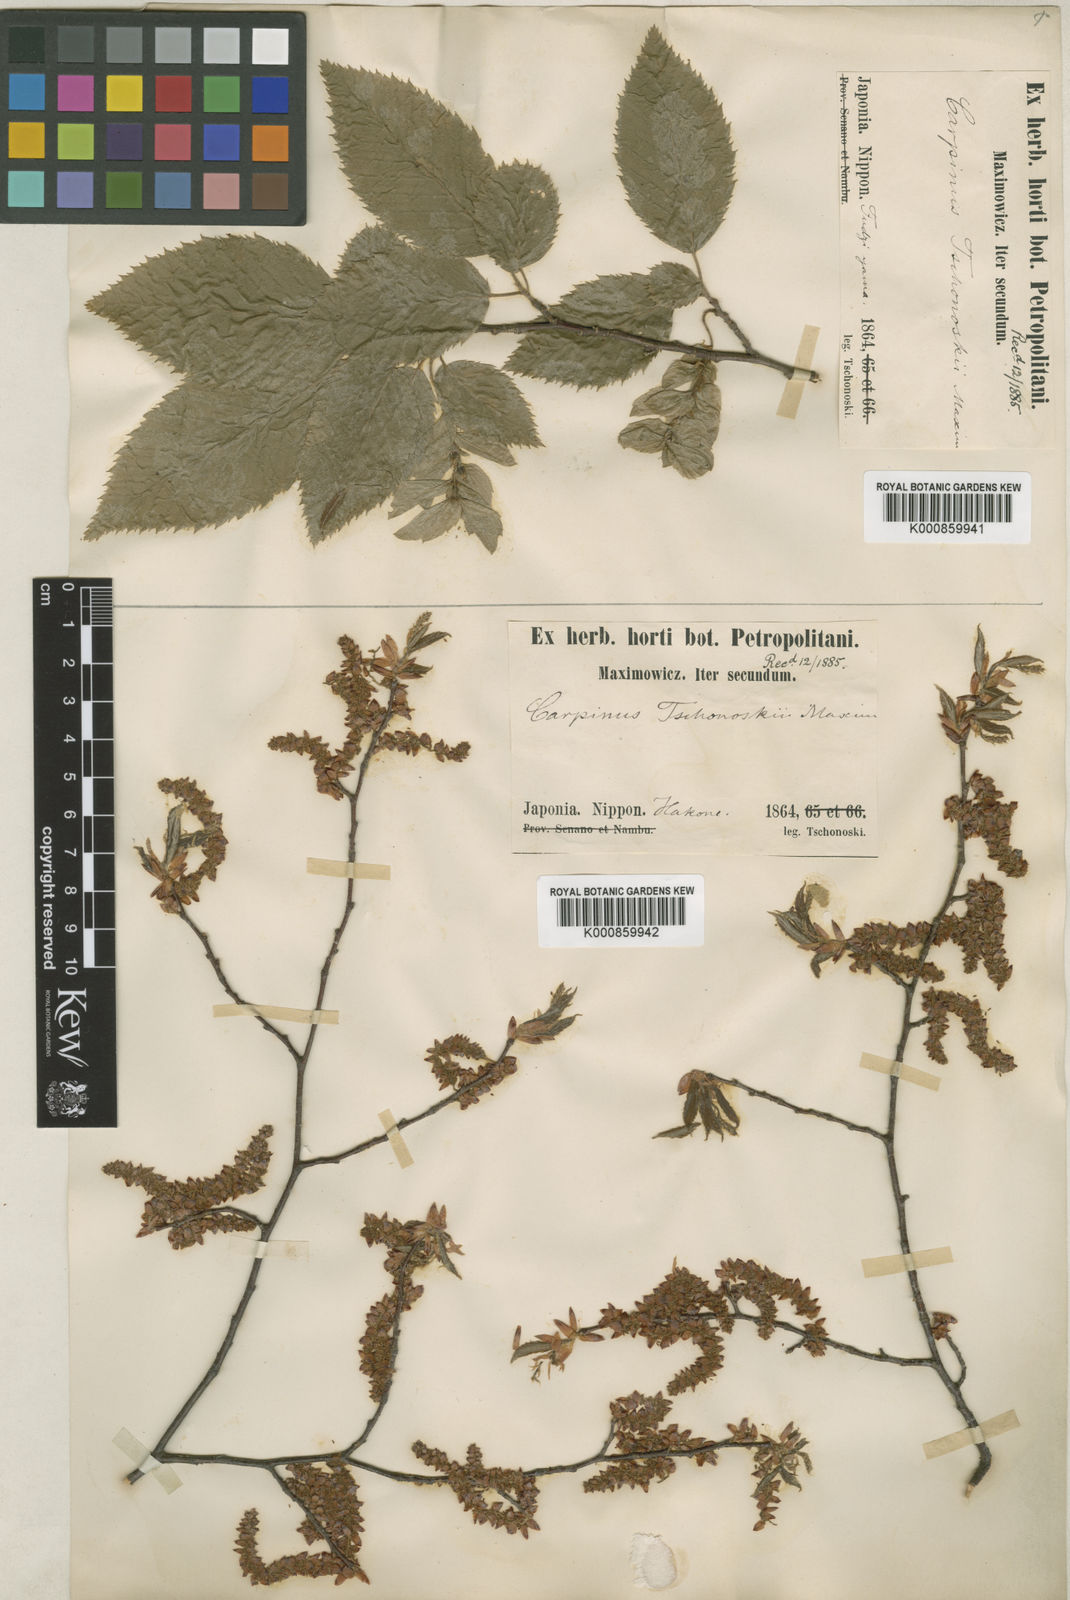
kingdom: Plantae
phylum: Tracheophyta
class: Magnoliopsida
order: Fagales
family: Betulaceae
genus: Carpinus
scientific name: Carpinus tschonoskii
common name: Asian hornbeam
